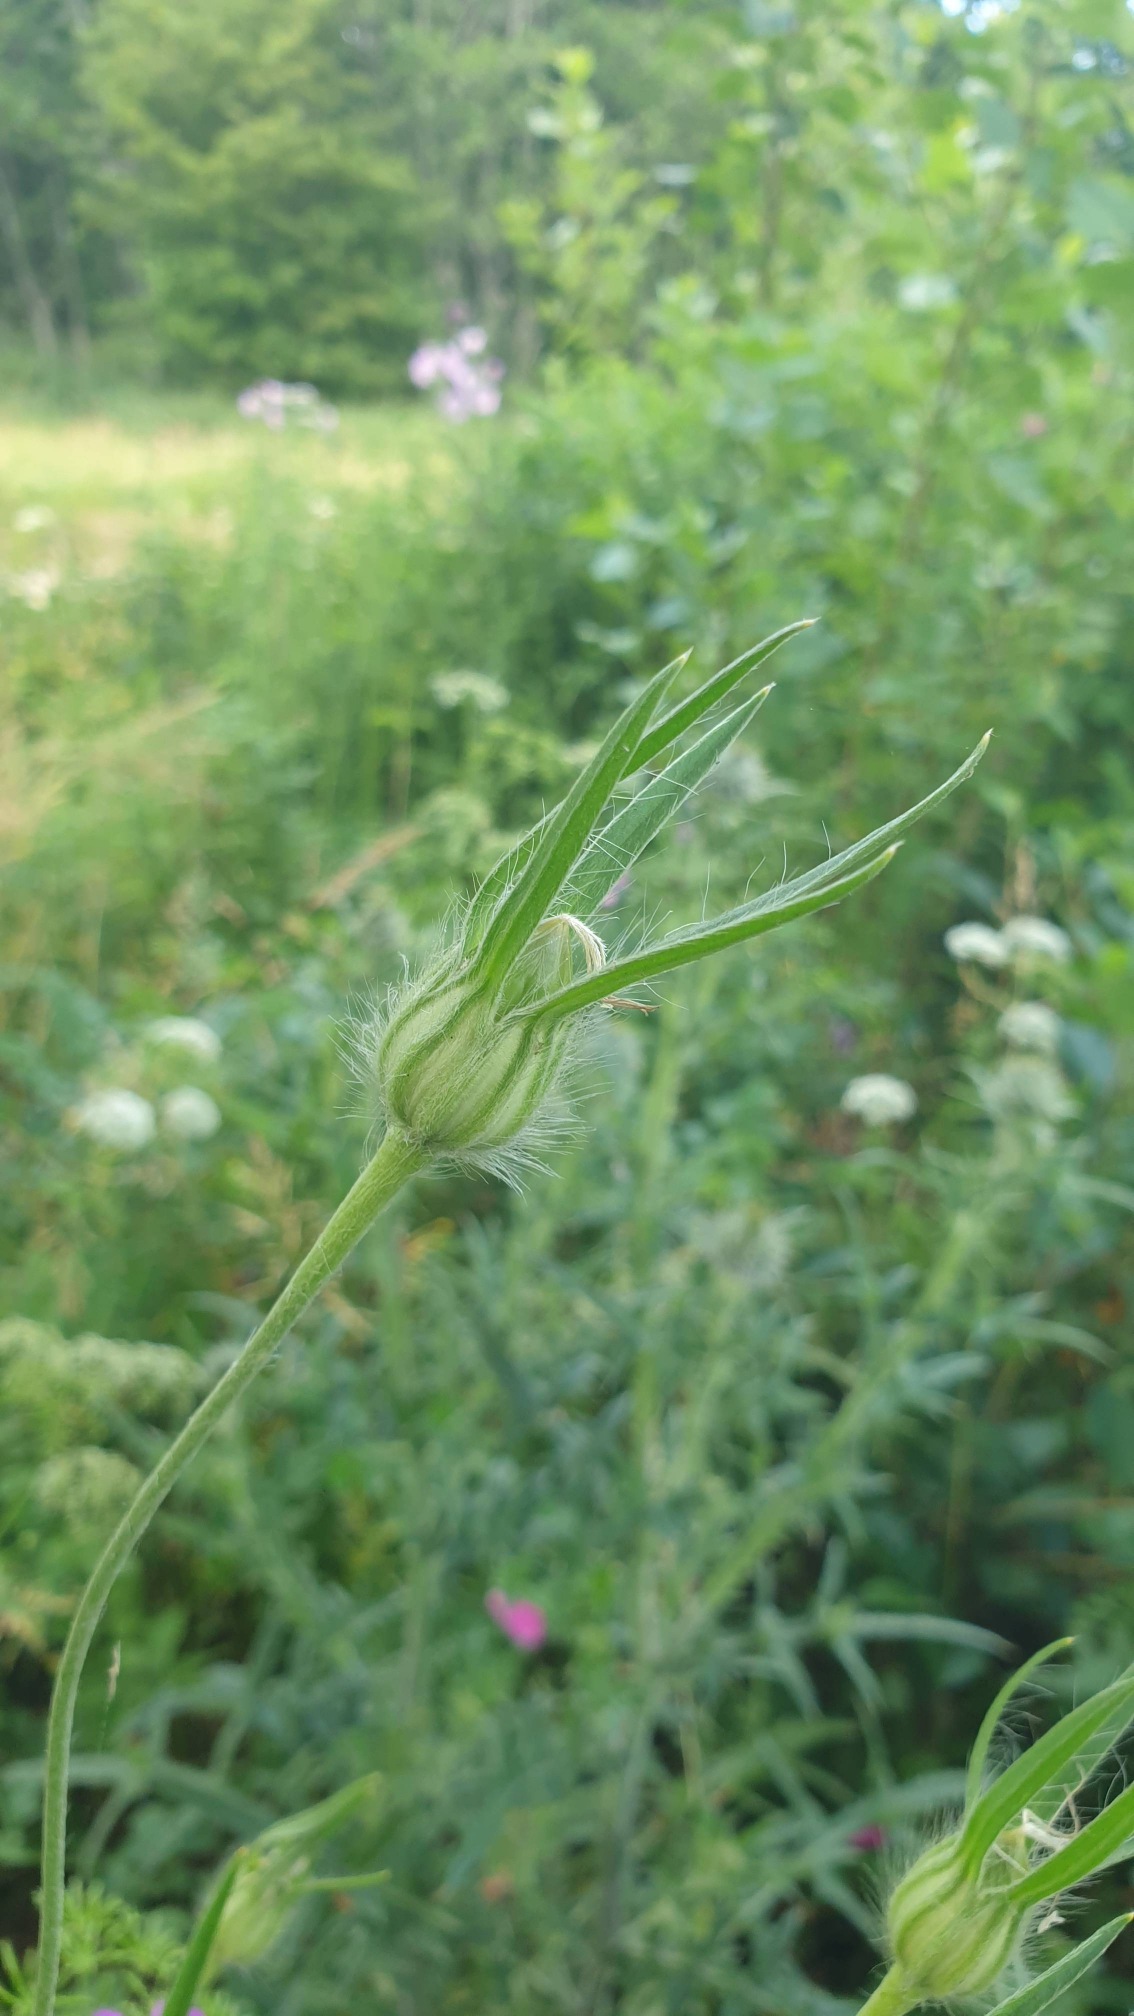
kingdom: Plantae
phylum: Tracheophyta
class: Magnoliopsida
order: Caryophyllales
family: Caryophyllaceae
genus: Agrostemma
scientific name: Agrostemma githago
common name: Klinte
